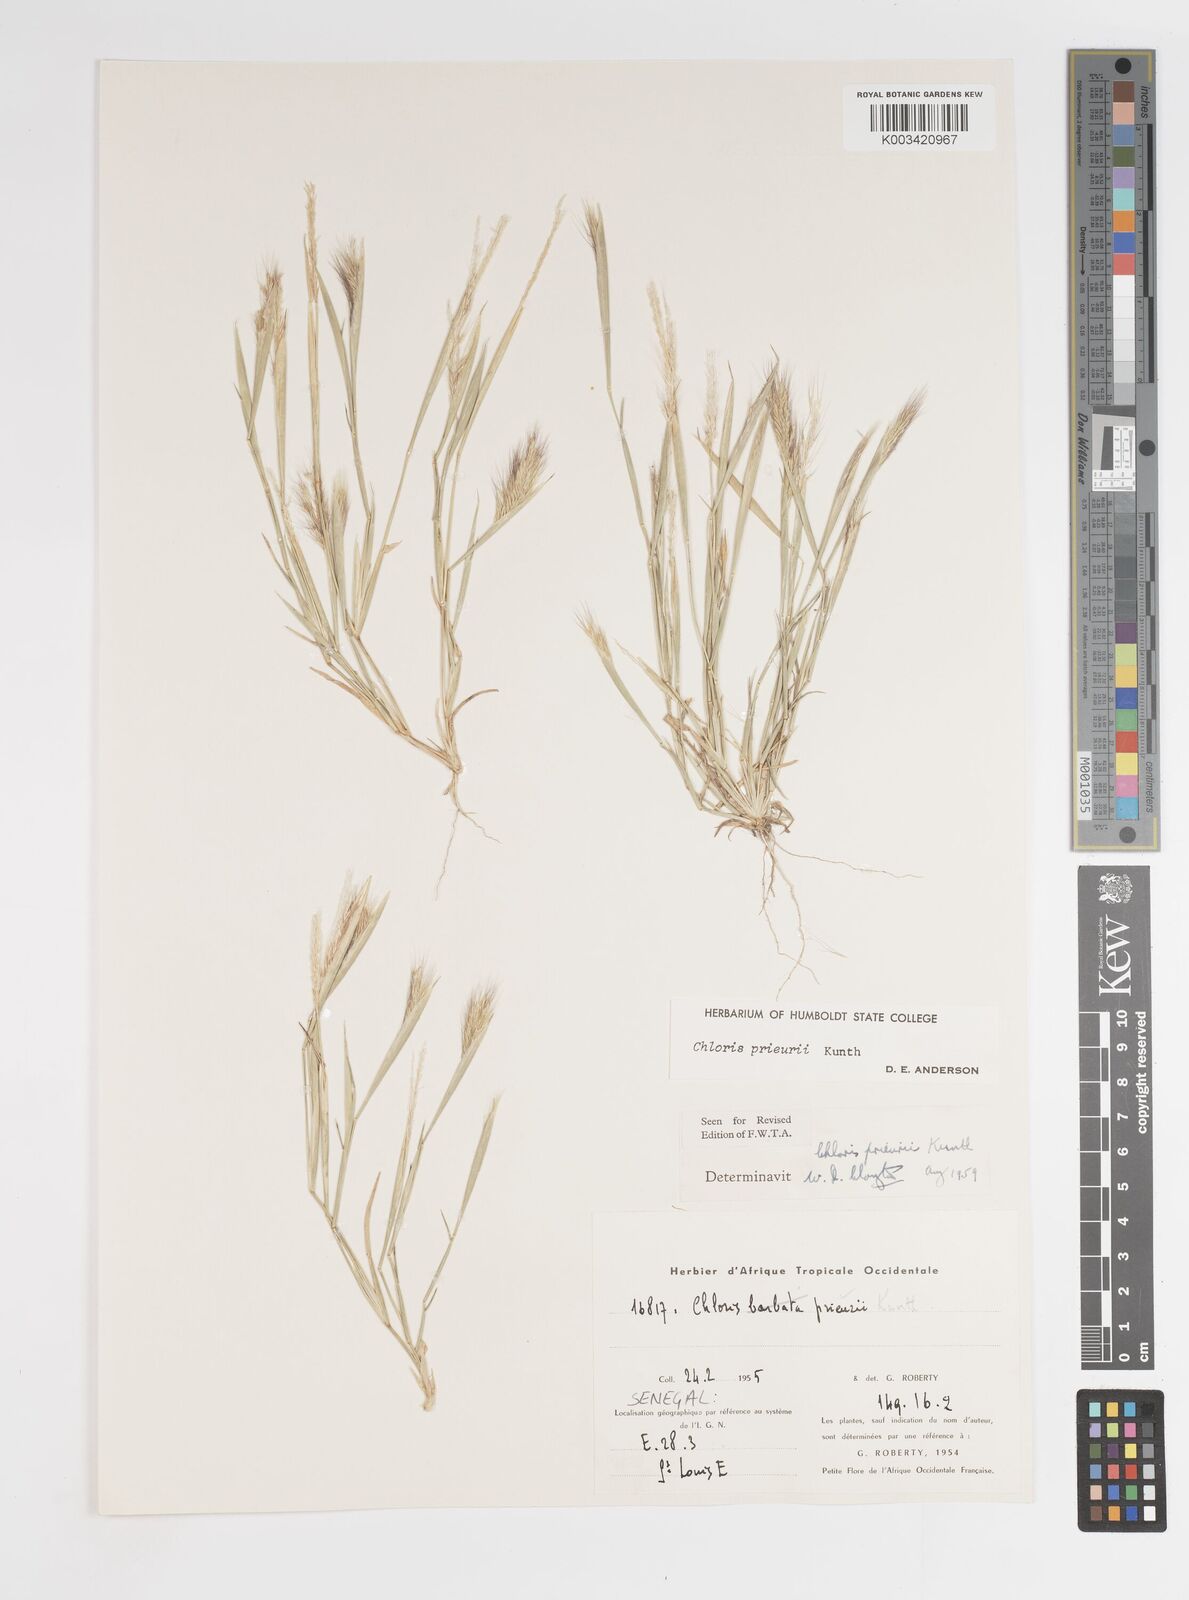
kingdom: Plantae
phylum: Tracheophyta
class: Liliopsida
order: Poales
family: Poaceae
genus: Enteropogon
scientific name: Enteropogon prieurii
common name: Prieur's umbrellagrass
